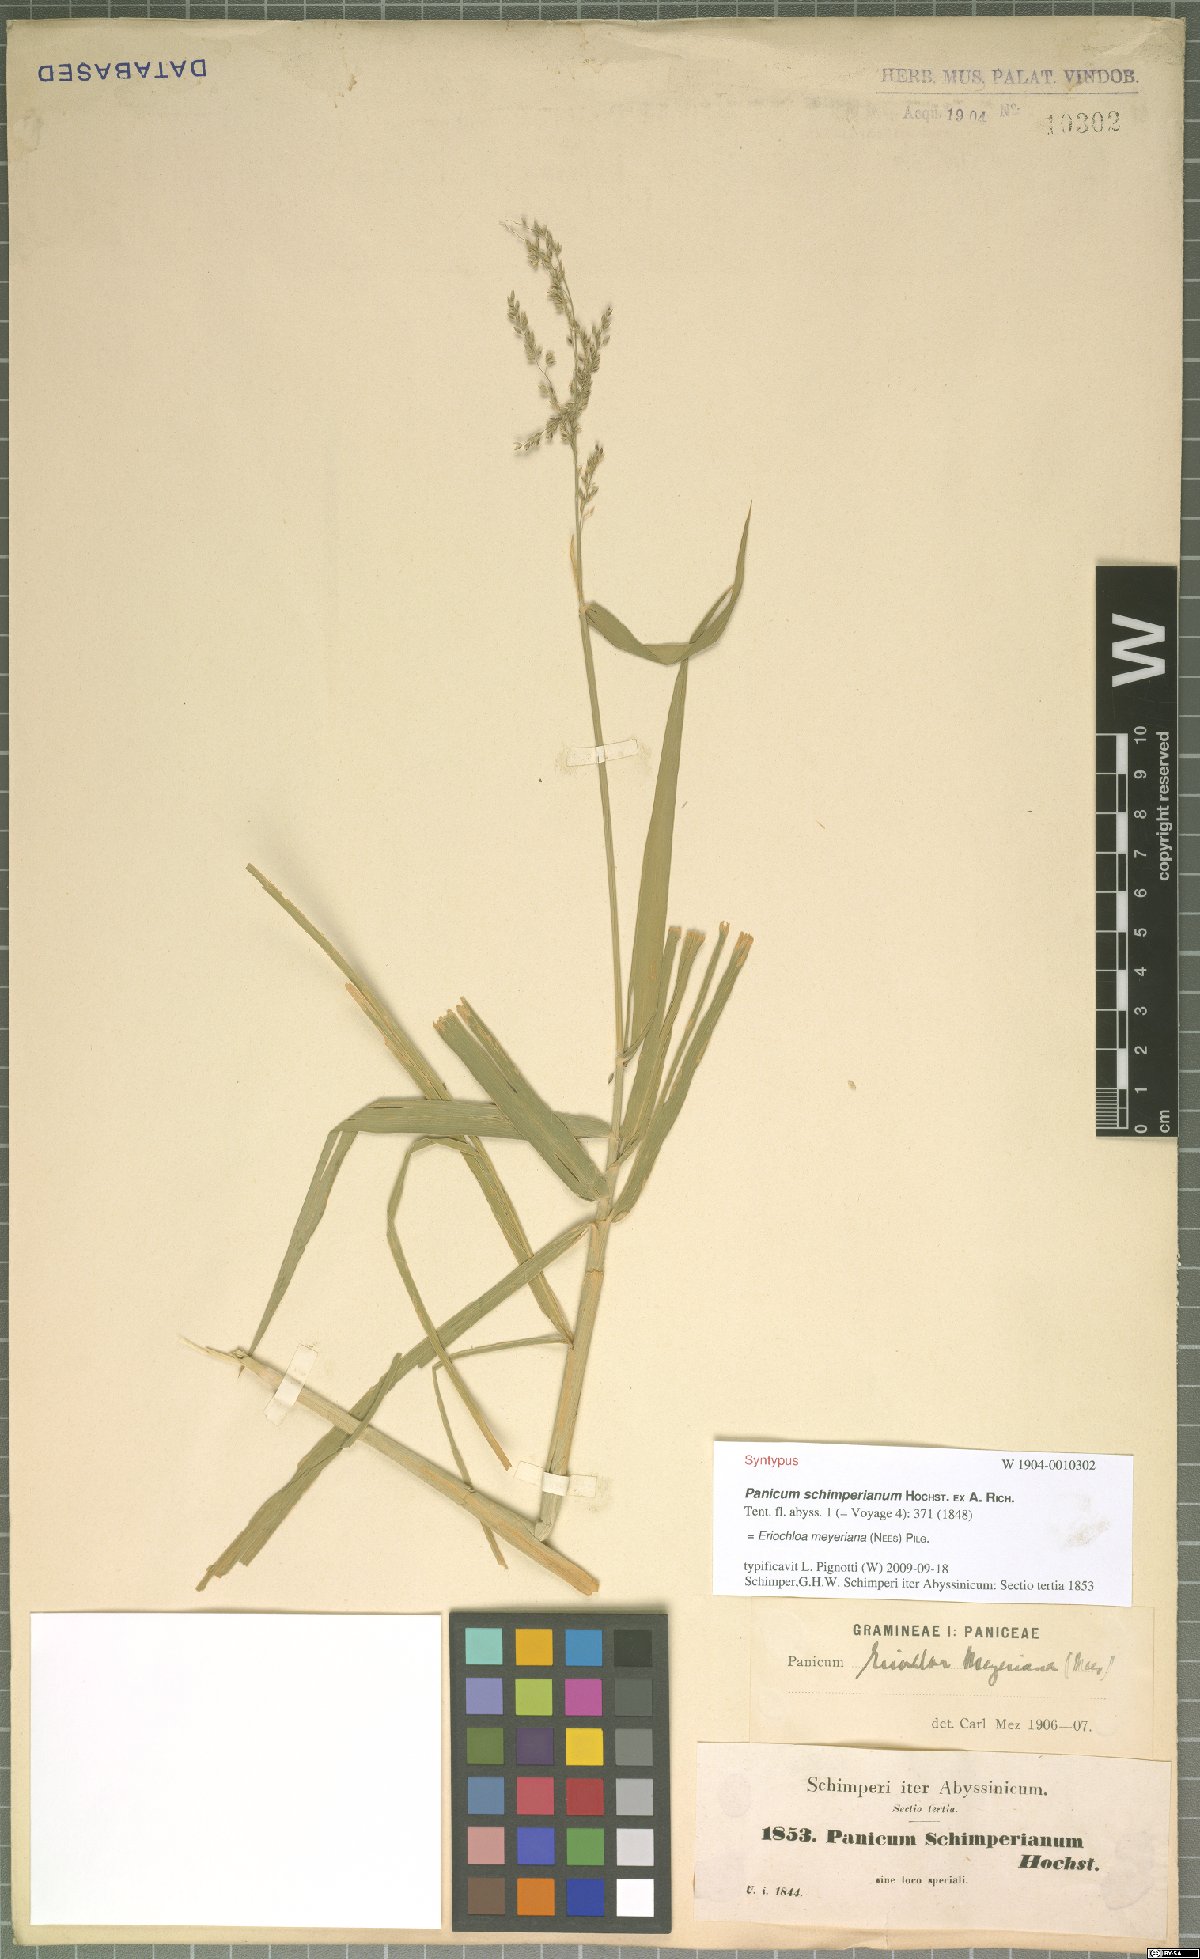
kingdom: Plantae
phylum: Tracheophyta
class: Liliopsida
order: Poales
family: Poaceae
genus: Eriochloa
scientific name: Eriochloa meyeriana
